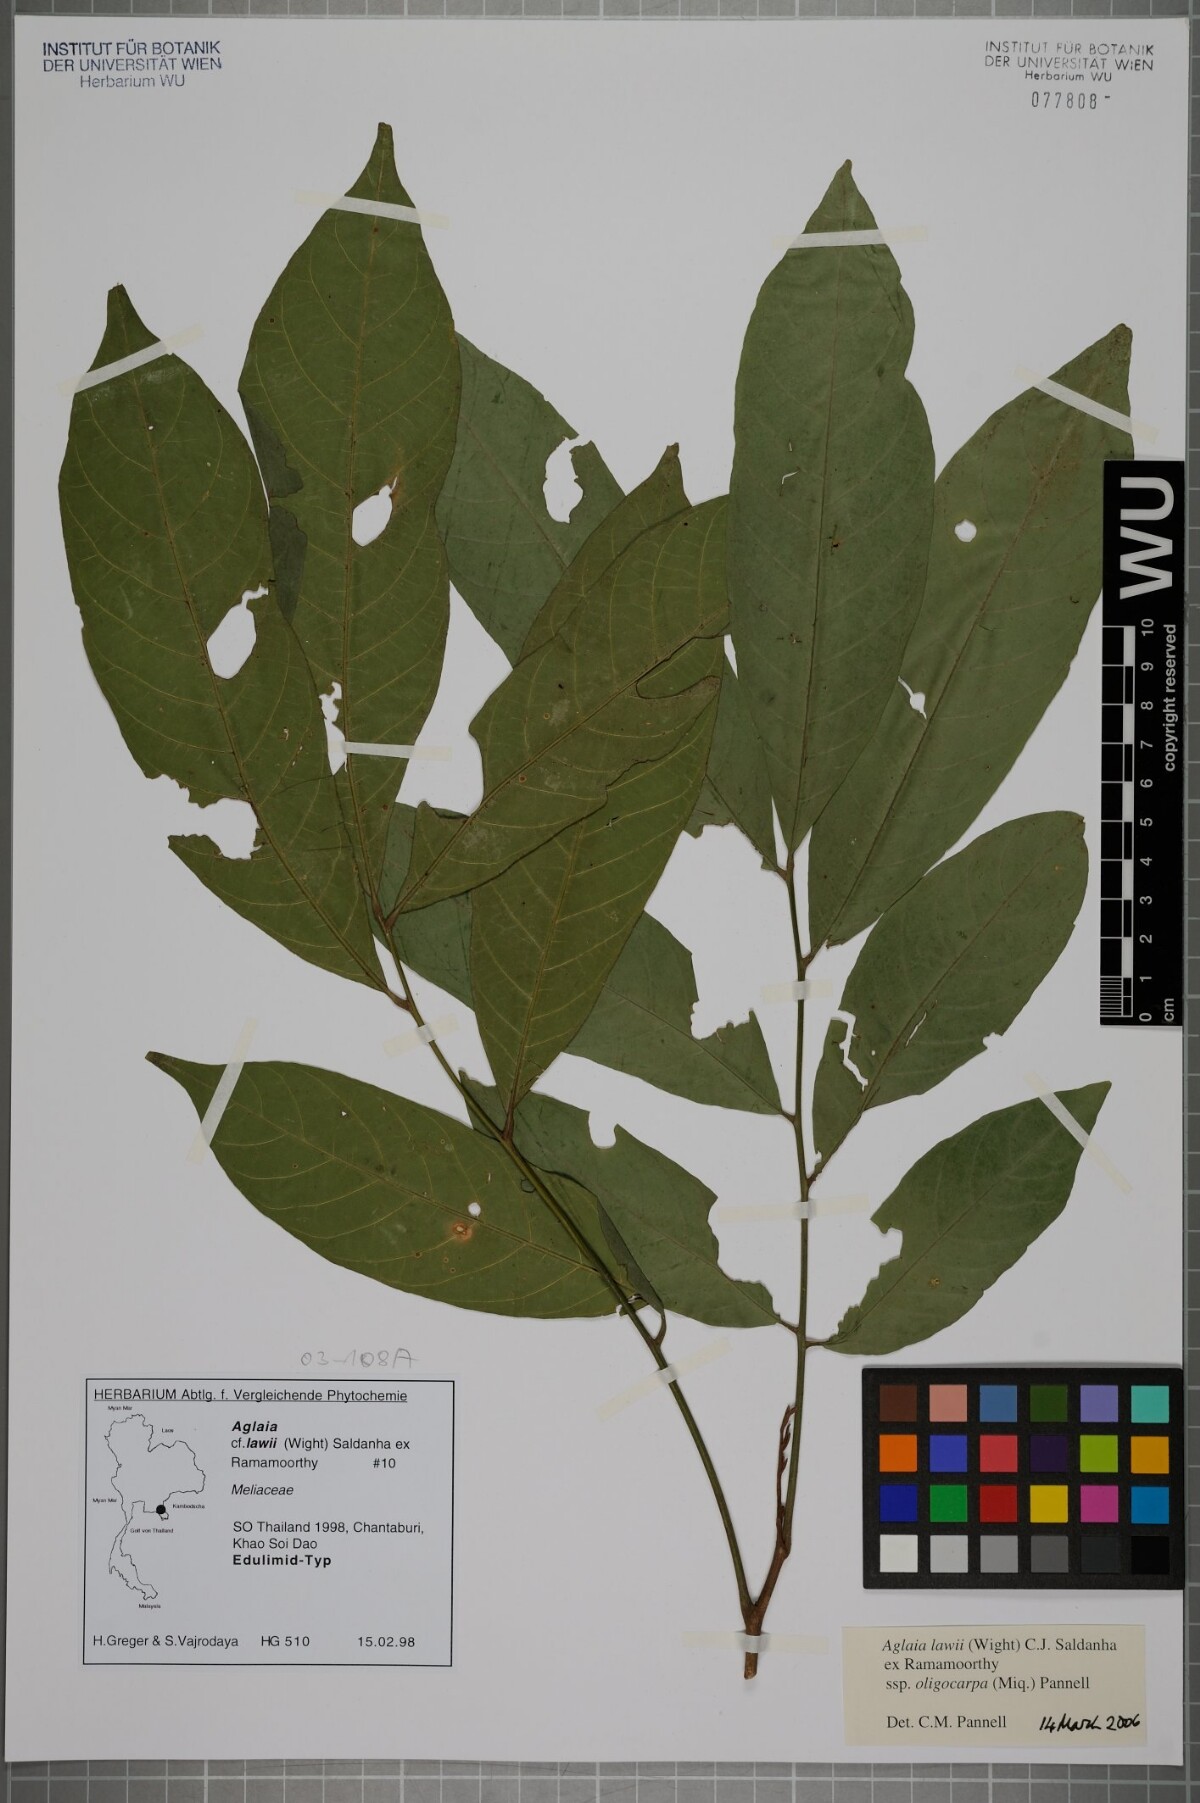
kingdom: Plantae
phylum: Tracheophyta
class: Magnoliopsida
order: Sapindales
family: Meliaceae
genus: Aglaia
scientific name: Aglaia lawii
